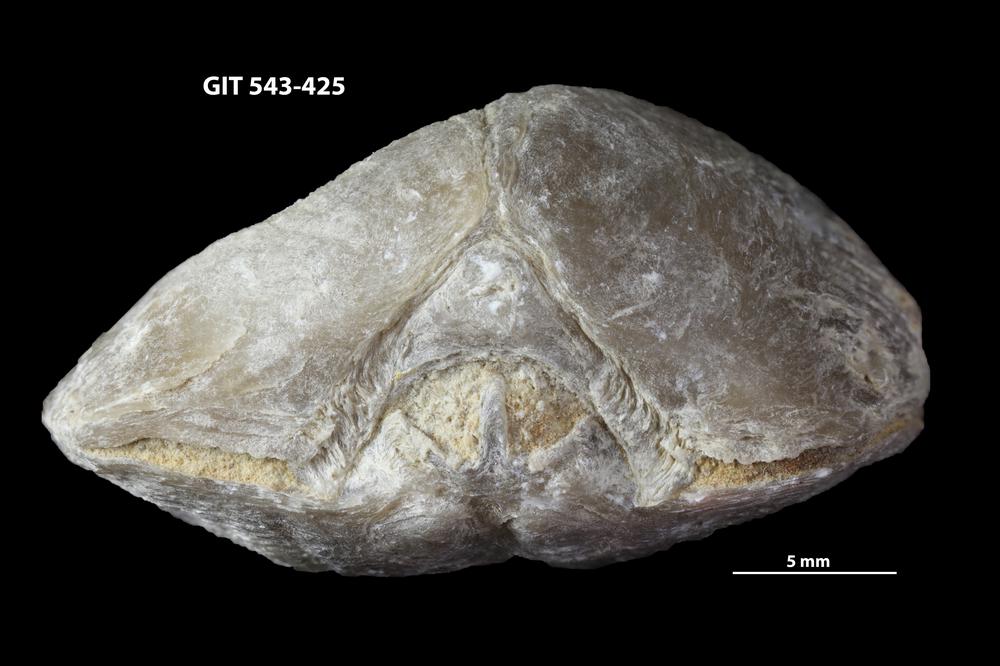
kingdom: Animalia
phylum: Brachiopoda
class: Rhynchonellata
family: Clitambonitidae
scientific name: Clitambonitidae
